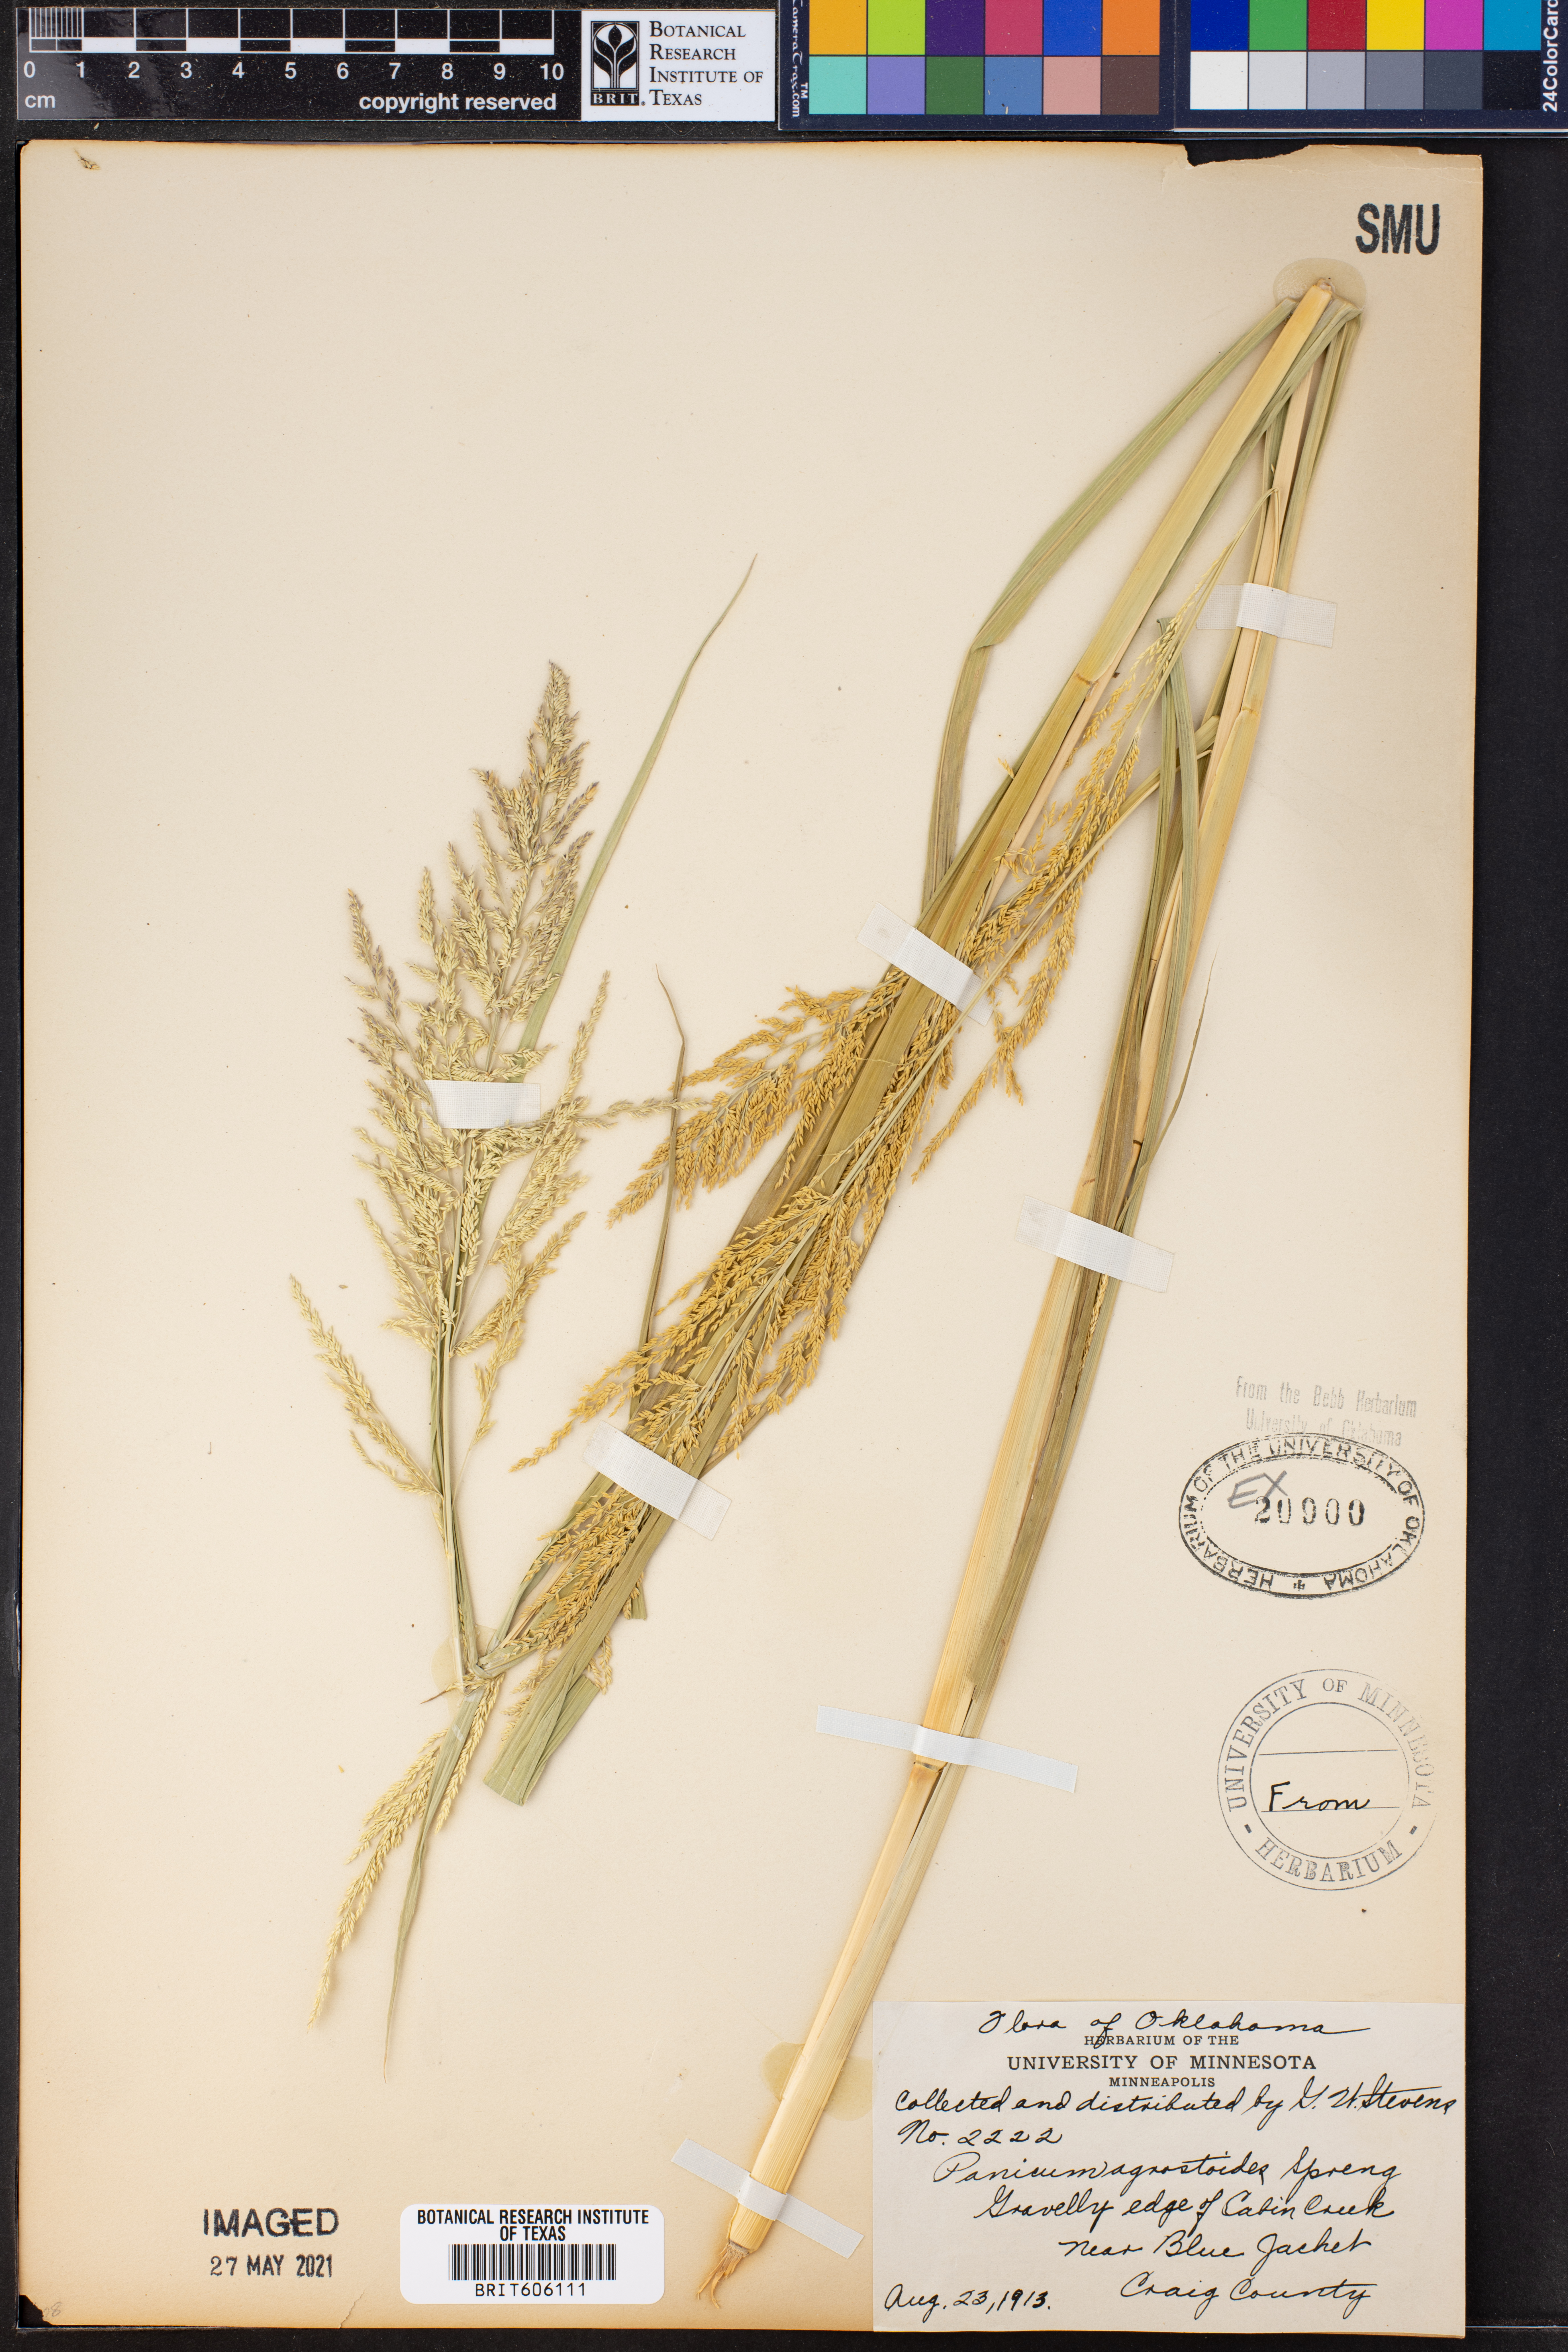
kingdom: Plantae
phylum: Tracheophyta
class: Liliopsida
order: Poales
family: Poaceae
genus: Steinchisma
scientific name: Steinchisma laxum
